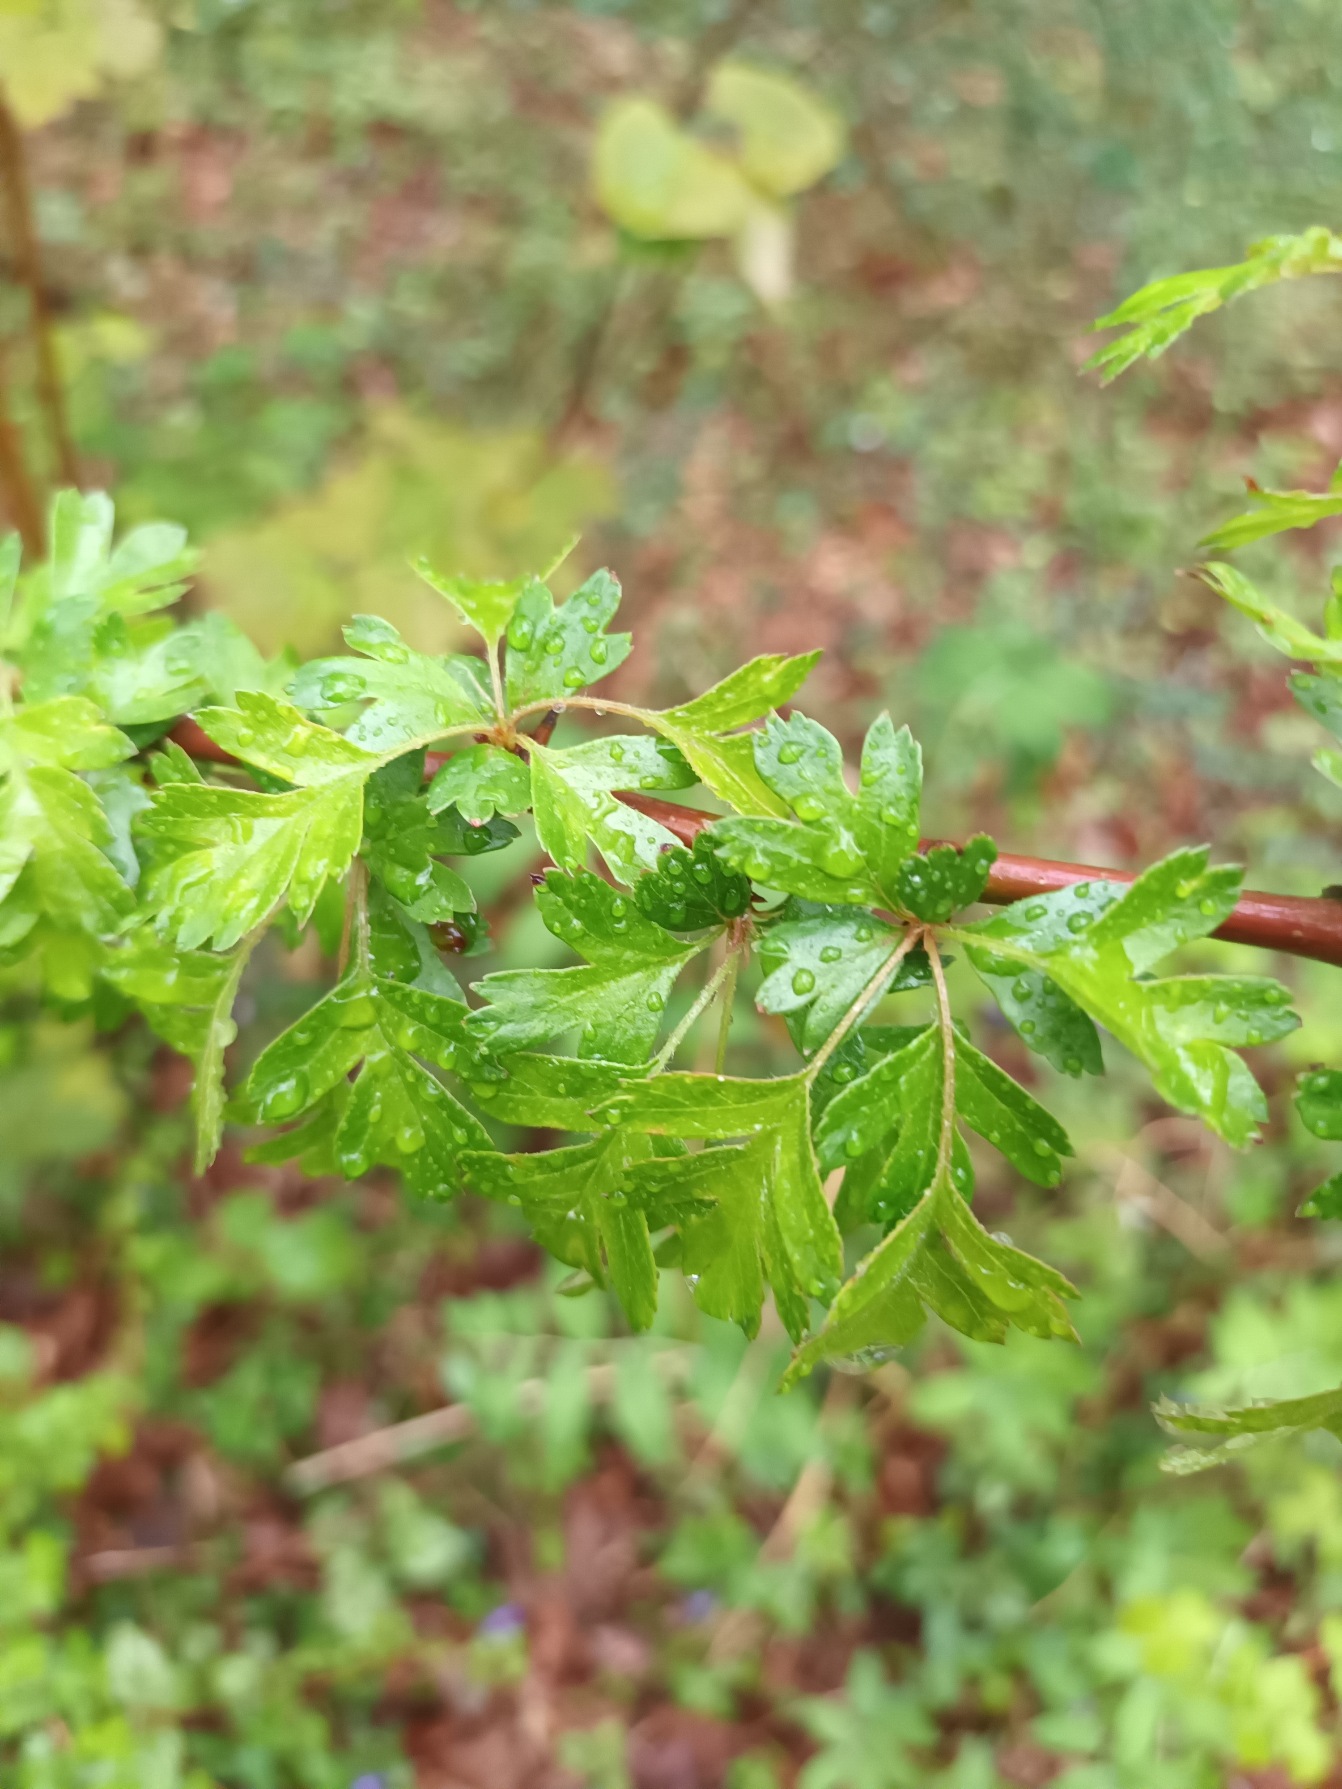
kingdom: Plantae
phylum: Tracheophyta
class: Magnoliopsida
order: Rosales
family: Rosaceae
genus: Crataegus
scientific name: Crataegus monogyna
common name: Engriflet hvidtjørn
